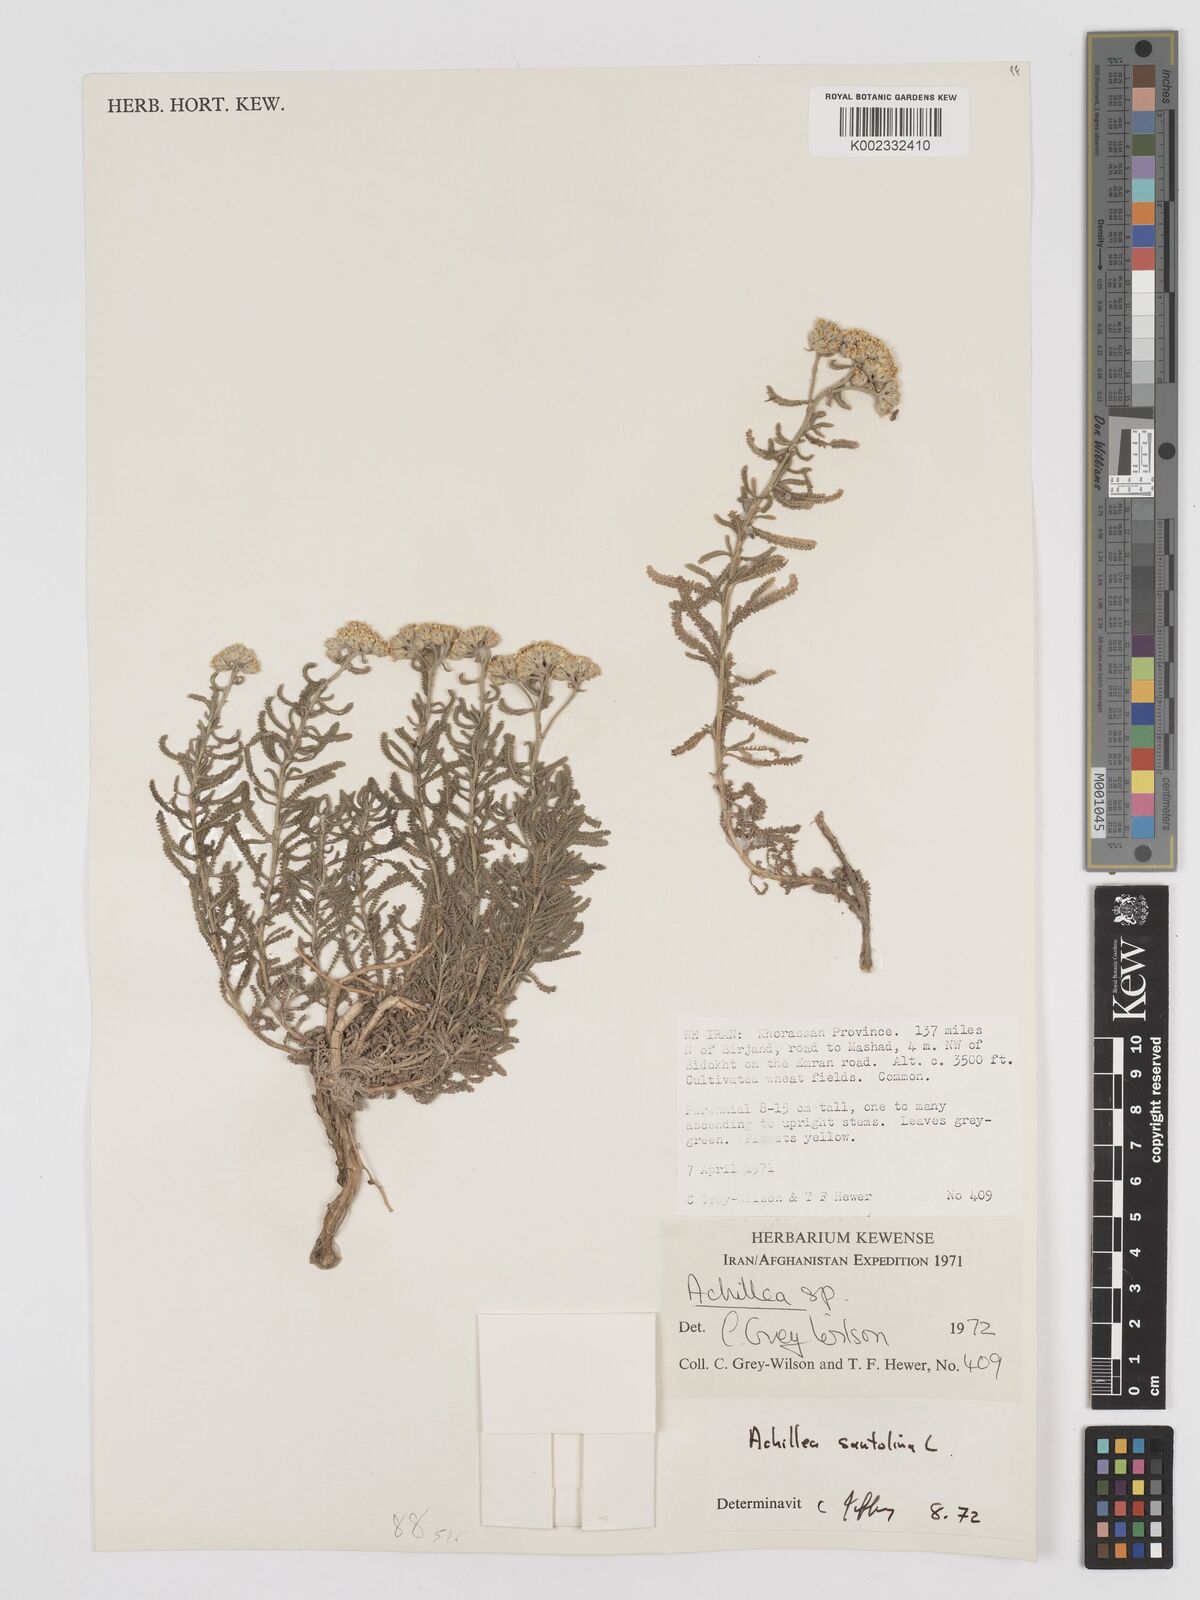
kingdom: Plantae
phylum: Tracheophyta
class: Magnoliopsida
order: Asterales
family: Asteraceae
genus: Achillea
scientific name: Achillea tenuifolia
